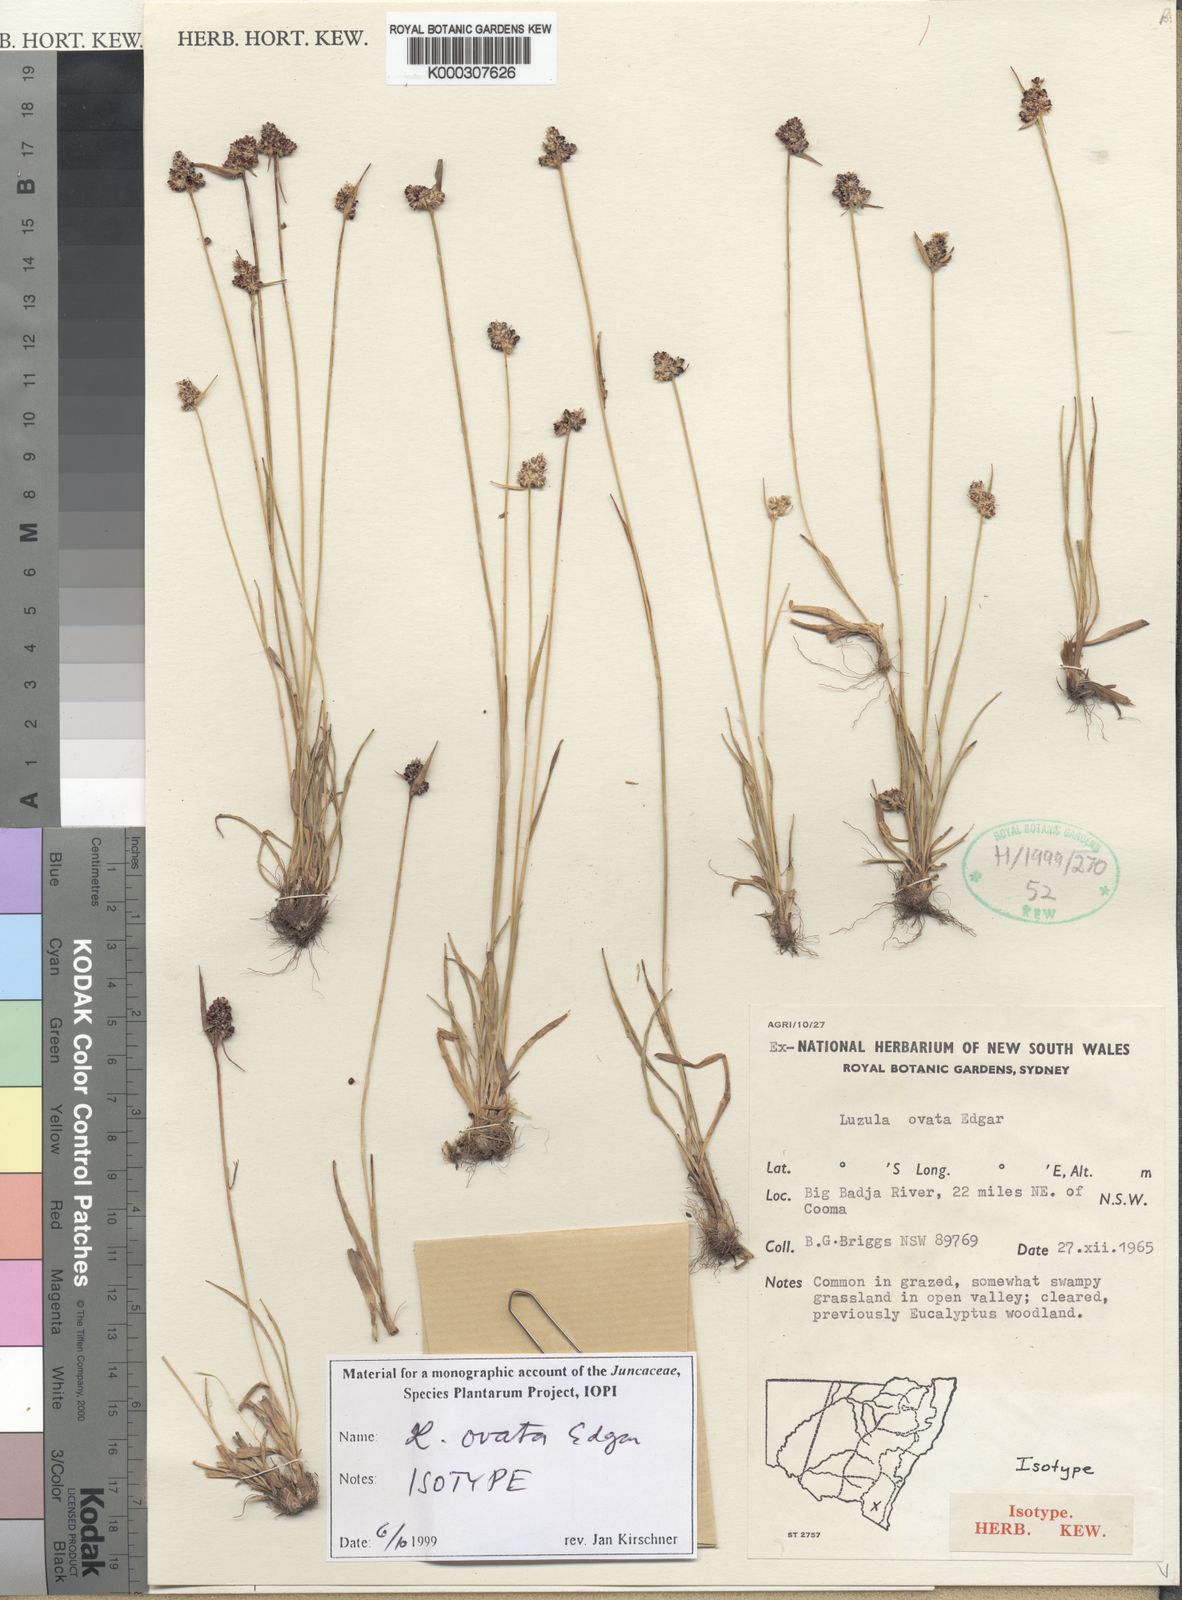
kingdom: Plantae
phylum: Tracheophyta
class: Liliopsida
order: Poales
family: Juncaceae
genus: Luzula
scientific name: Luzula ovata
